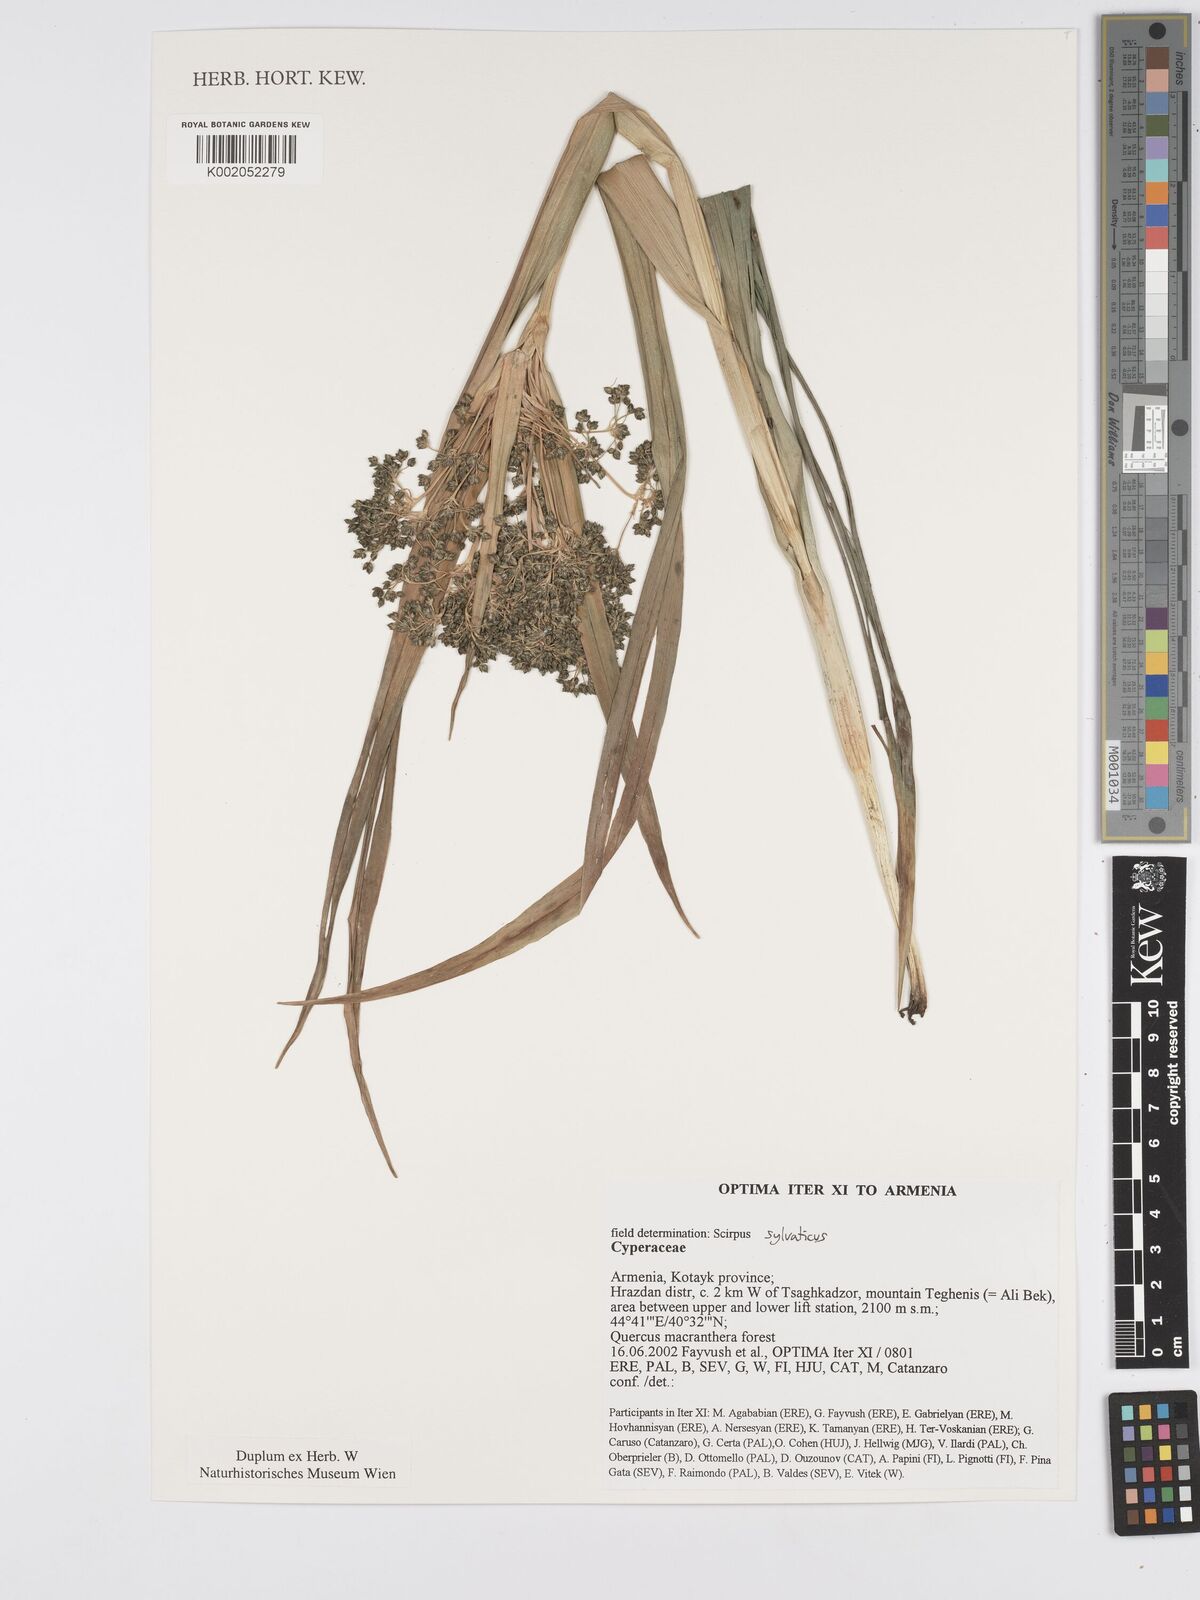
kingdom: Plantae
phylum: Tracheophyta
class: Liliopsida
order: Poales
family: Cyperaceae
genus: Scirpus
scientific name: Scirpus sylvaticus
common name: Wood club-rush
